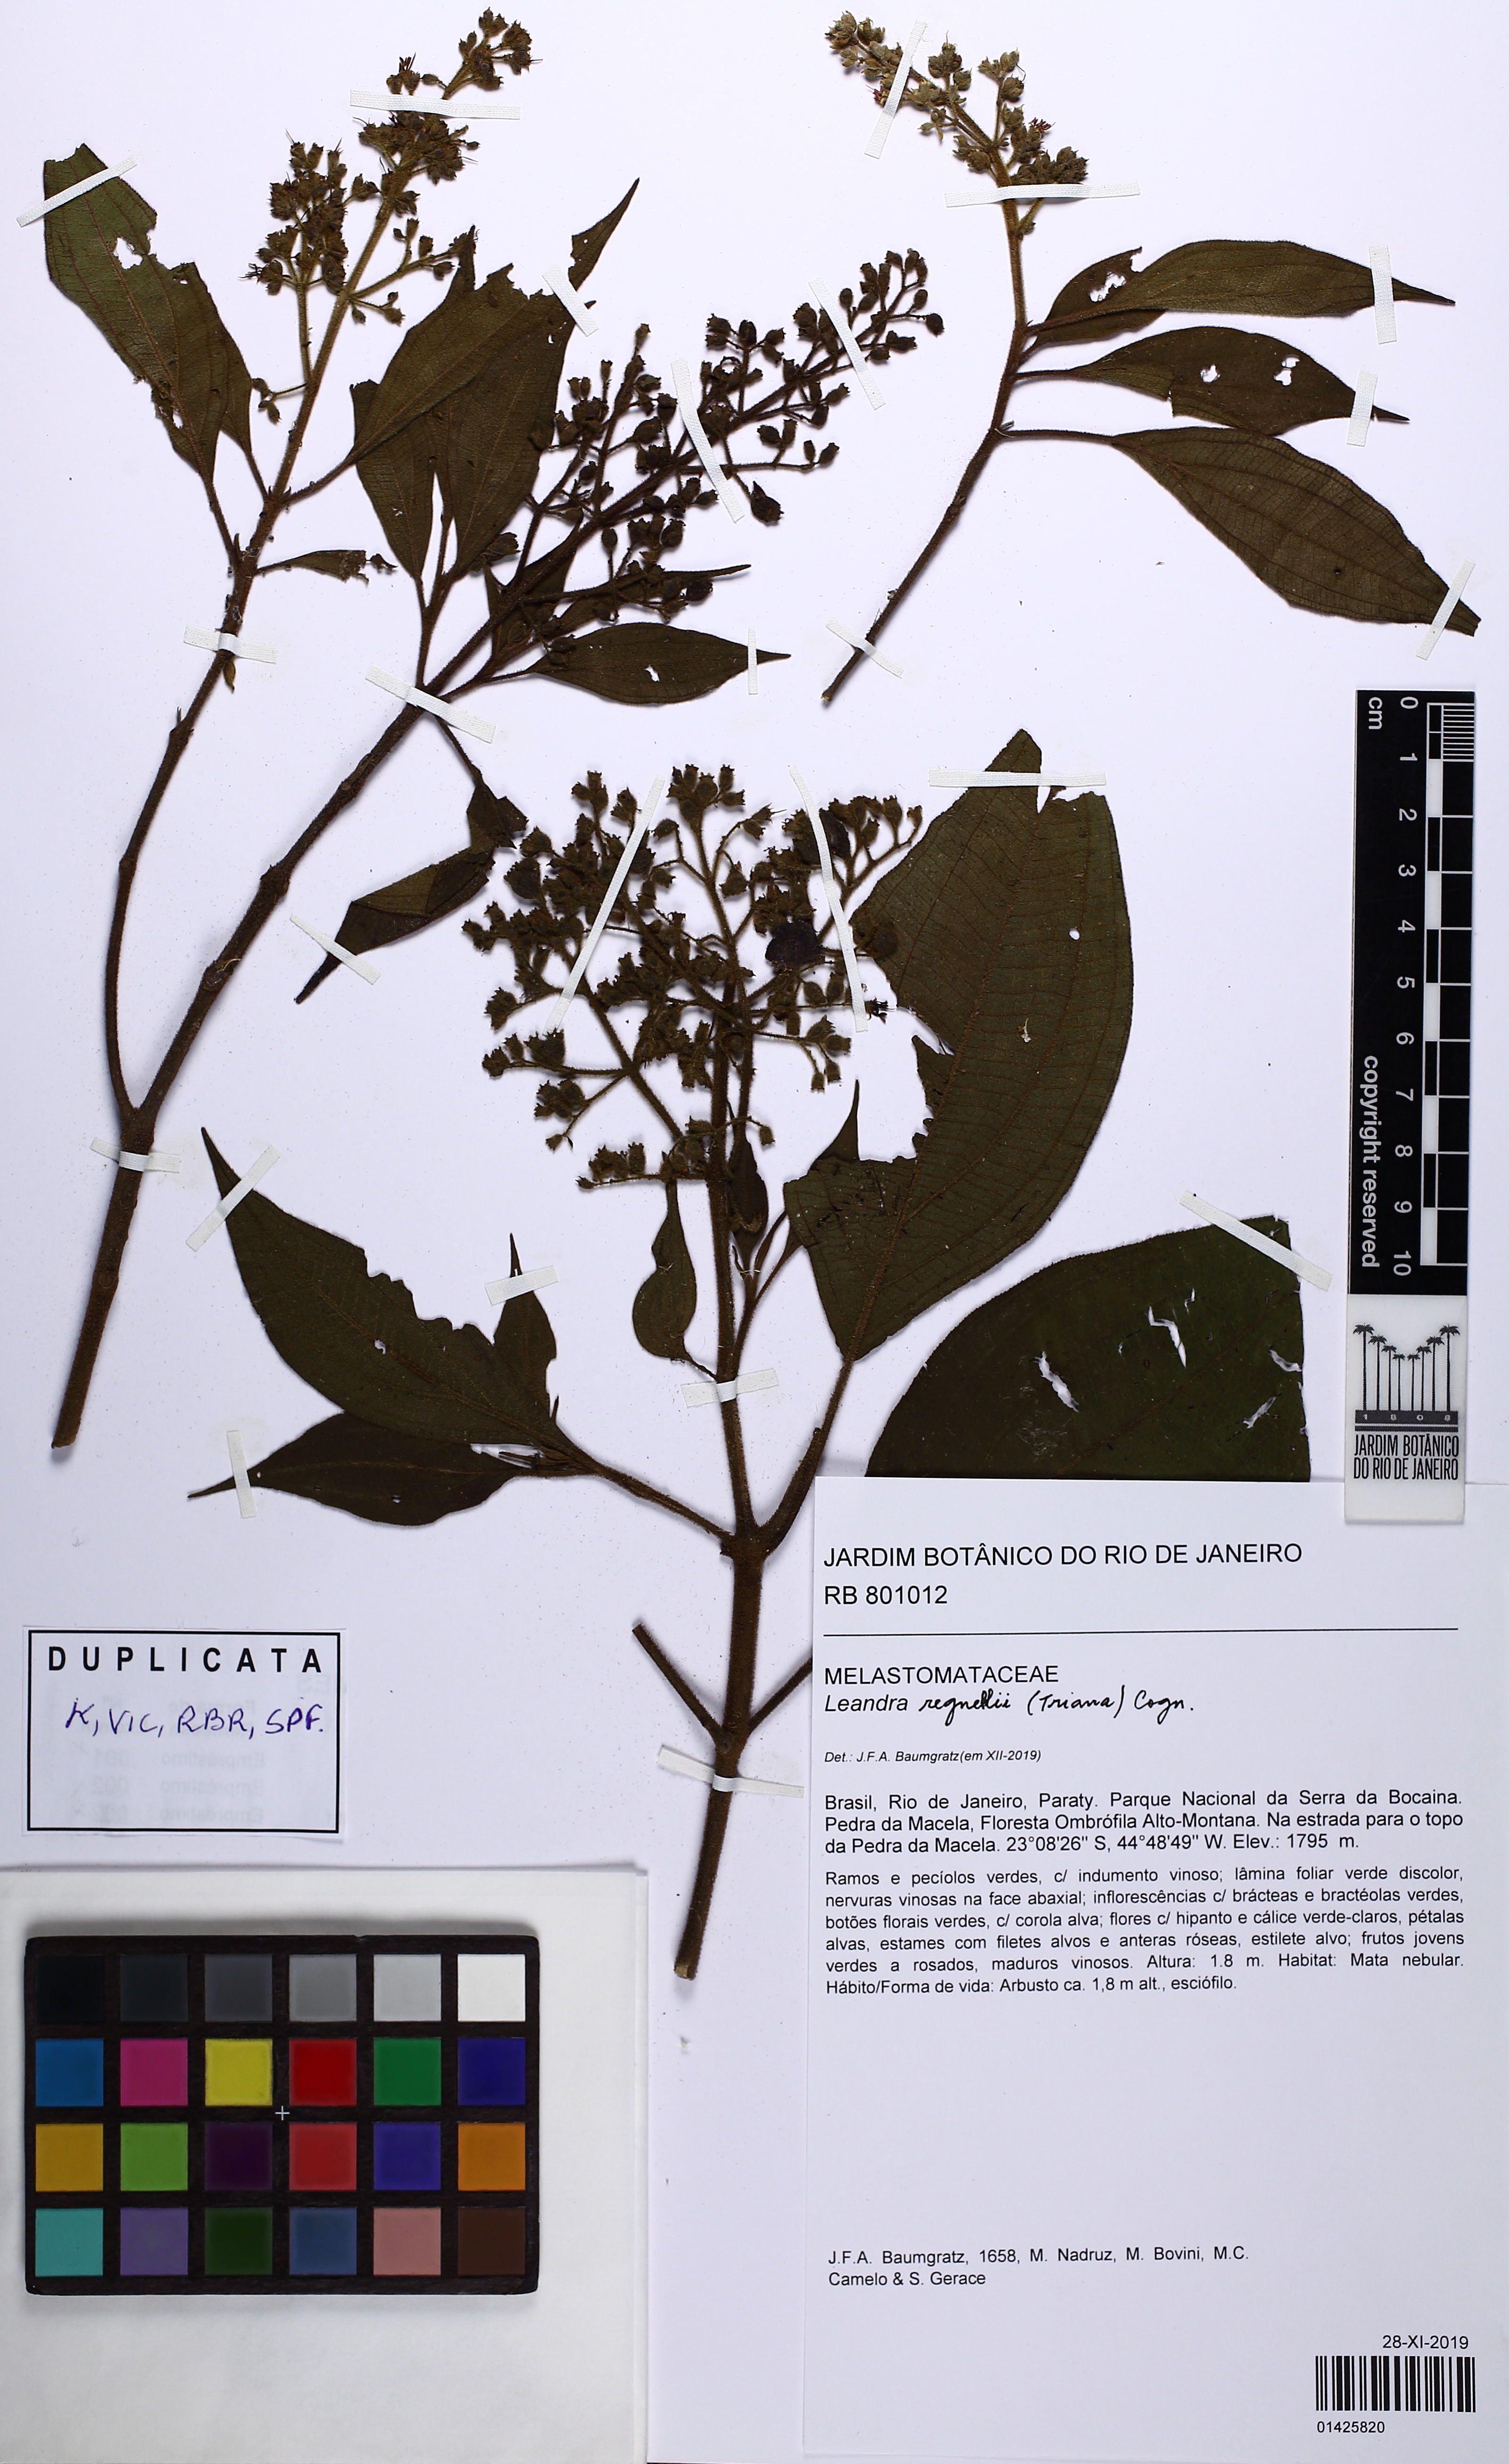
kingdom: Plantae
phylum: Tracheophyta
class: Magnoliopsida
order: Myrtales
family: Melastomataceae
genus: Miconia
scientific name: Miconia alterninervia
